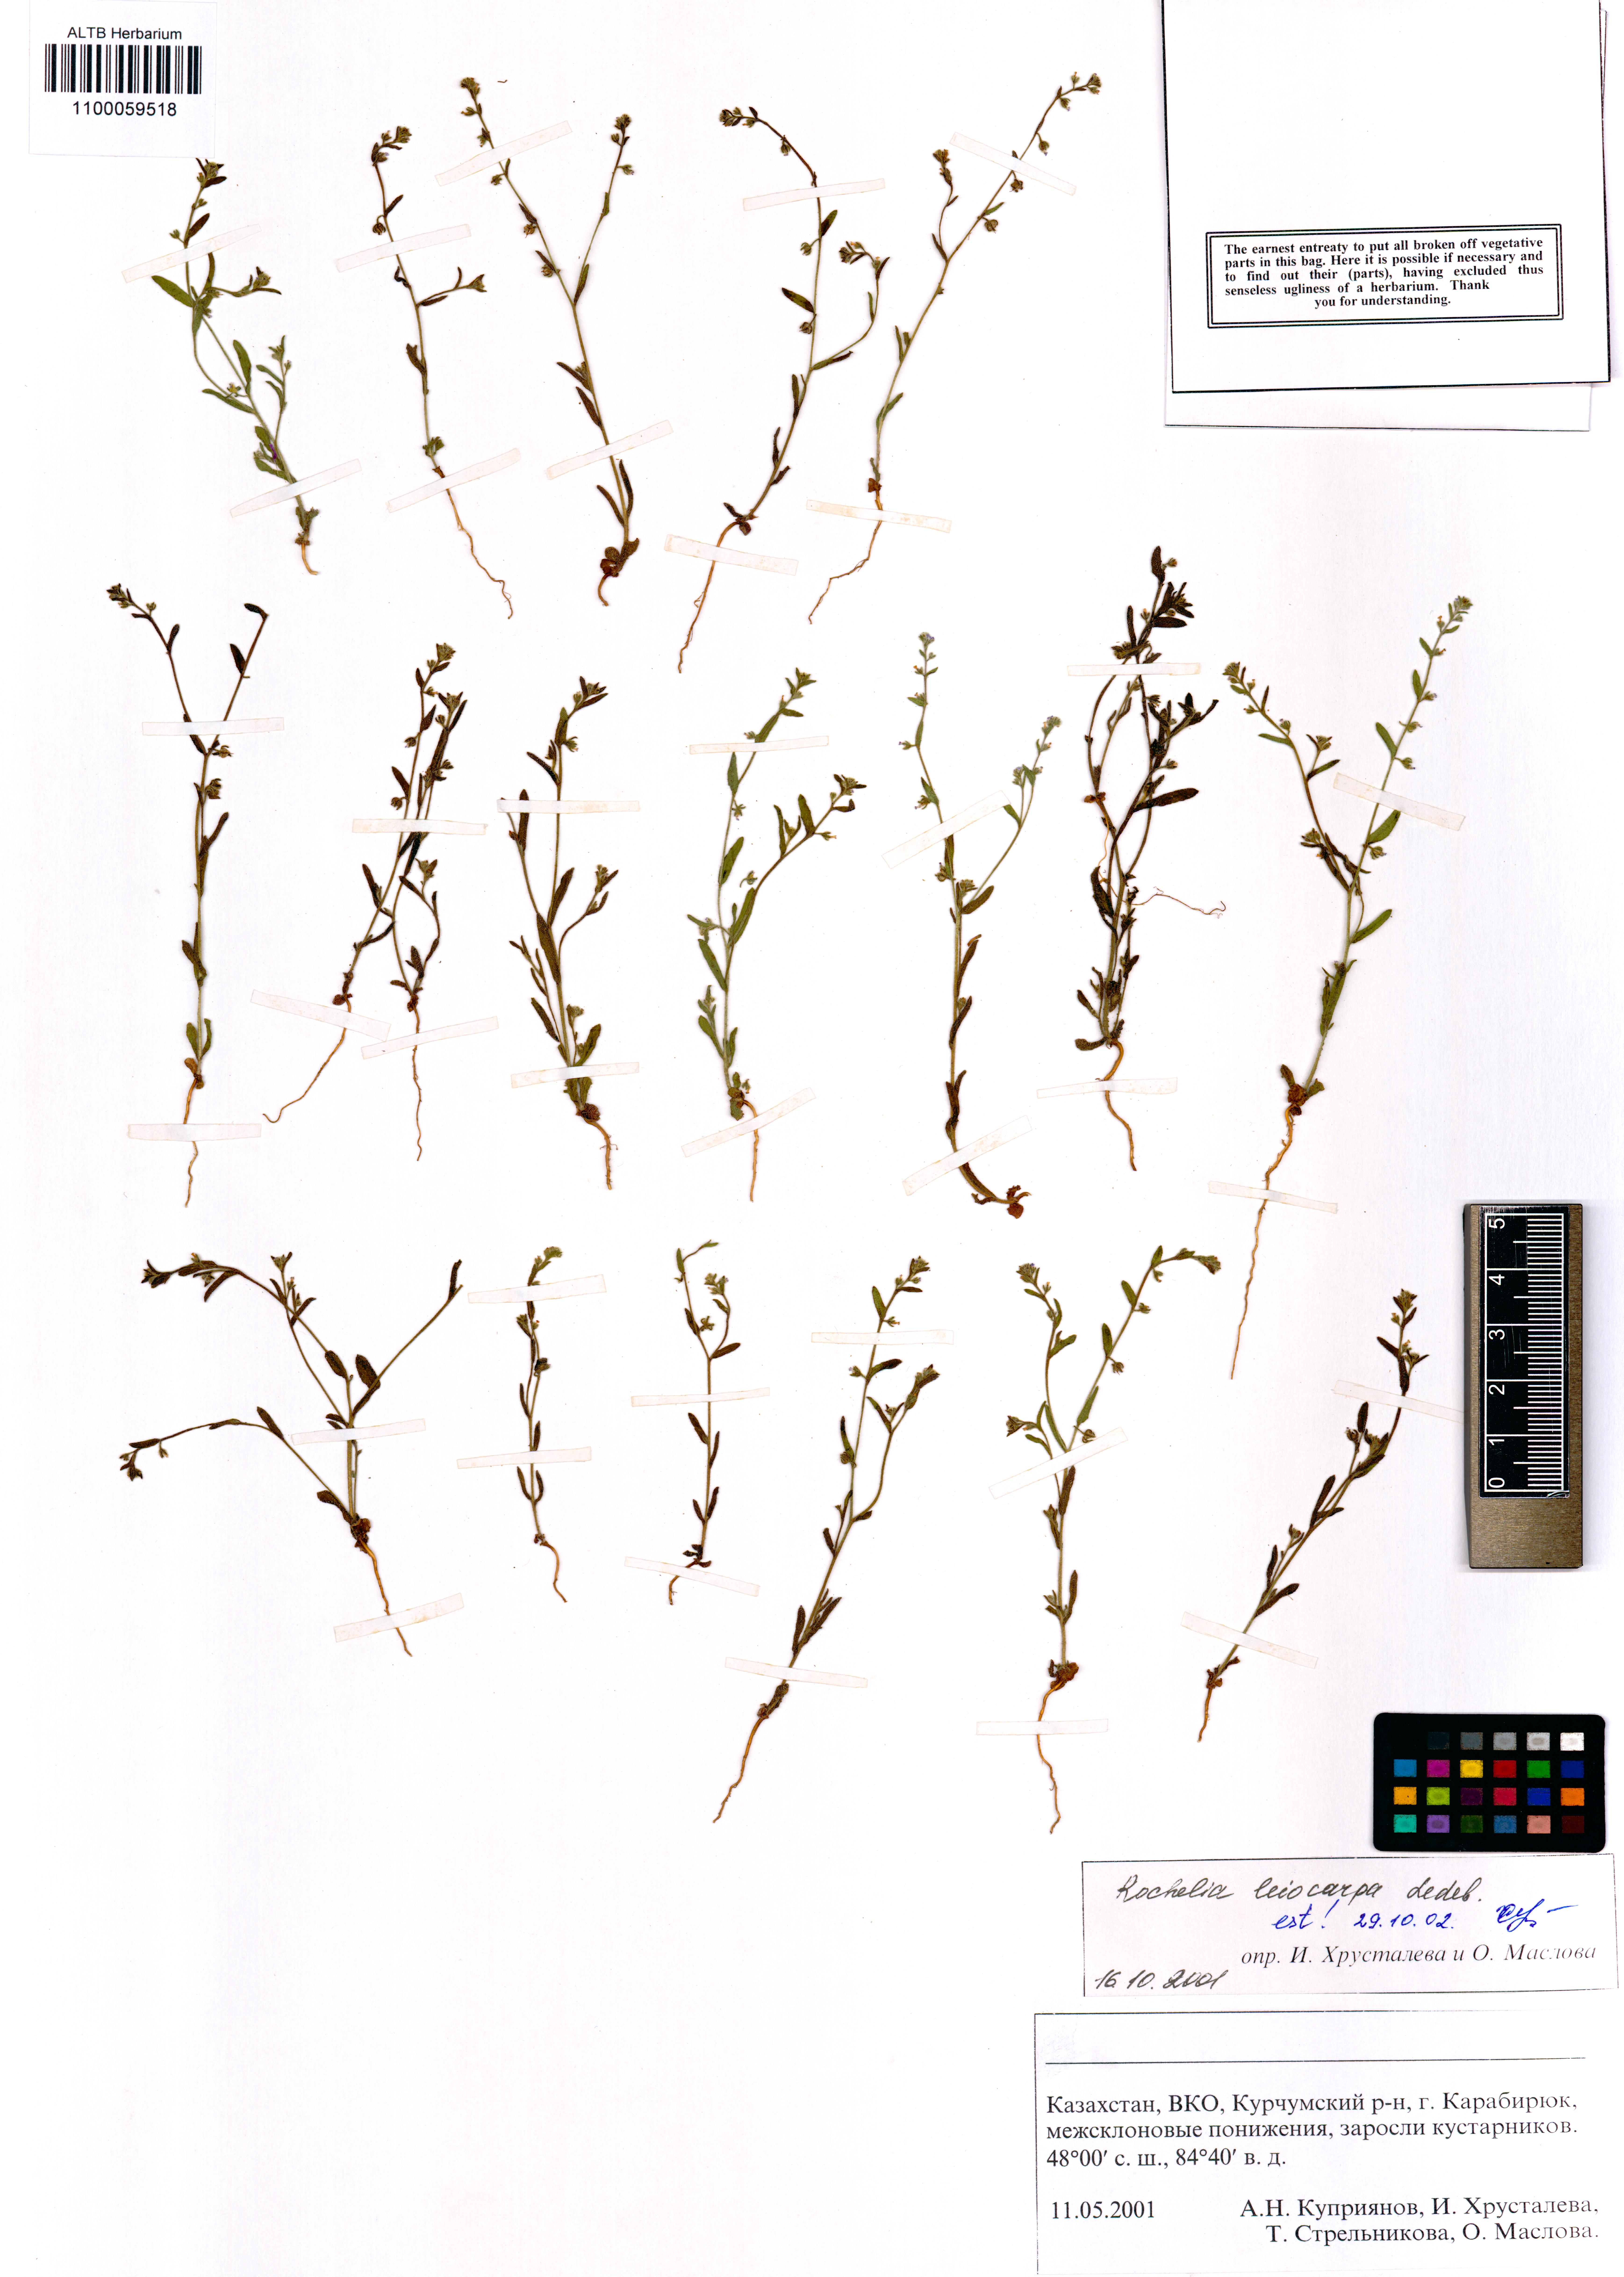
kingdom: Plantae
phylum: Tracheophyta
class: Magnoliopsida
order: Boraginales
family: Boraginaceae
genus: Rochelia
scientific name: Rochelia leiocarpa
